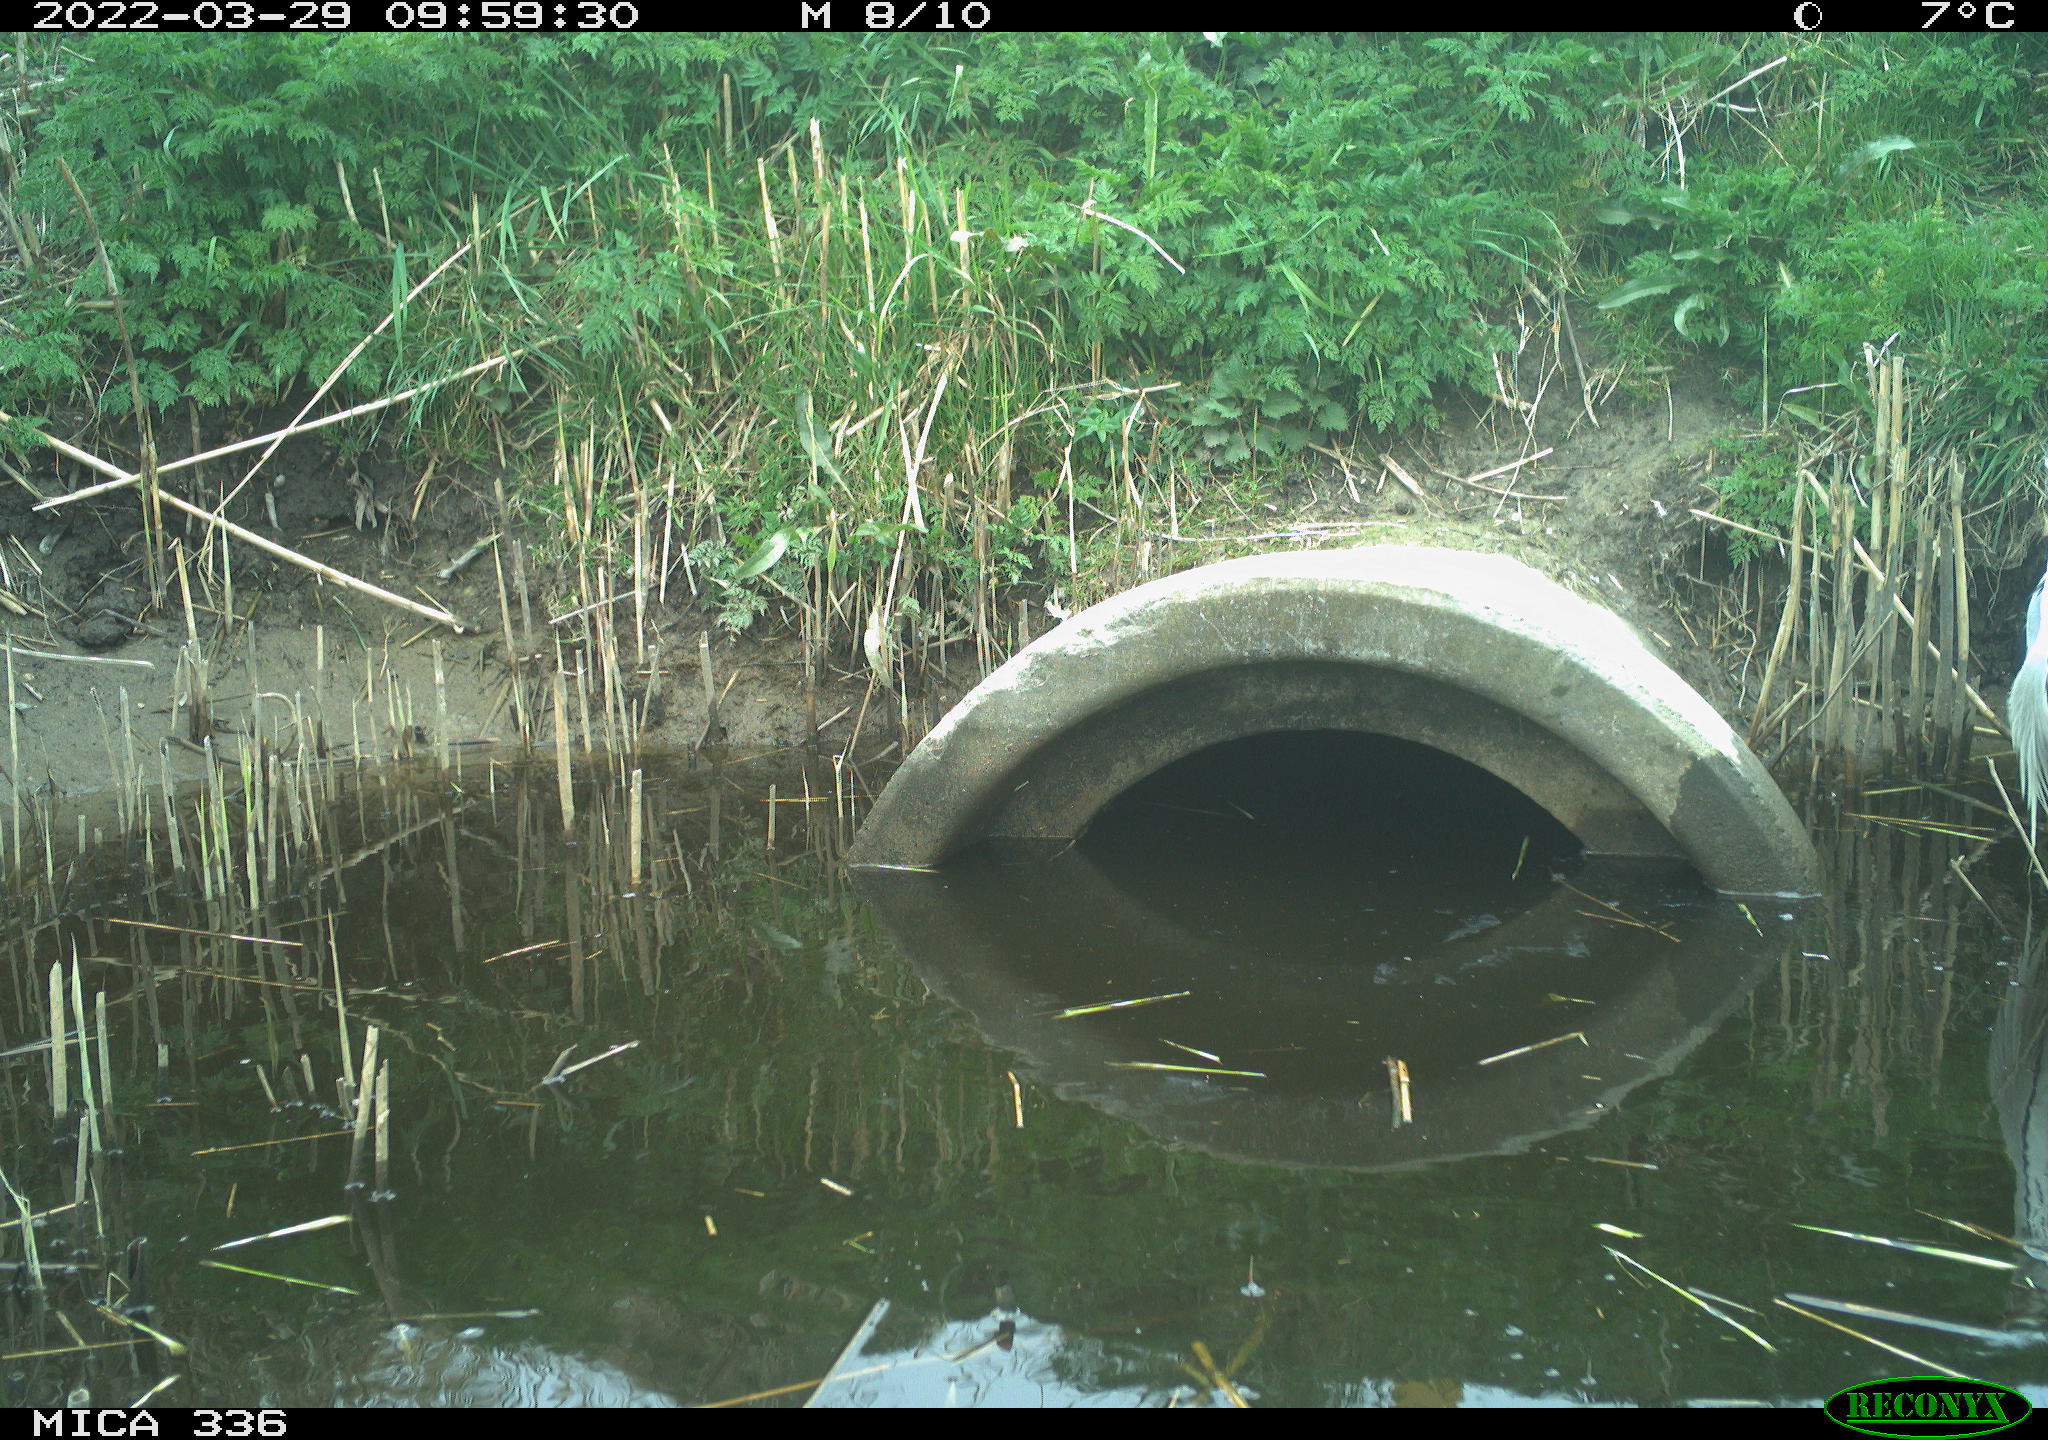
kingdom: Animalia
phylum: Chordata
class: Aves
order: Pelecaniformes
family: Ardeidae
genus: Ardea
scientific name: Ardea cinerea
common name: Grey heron
